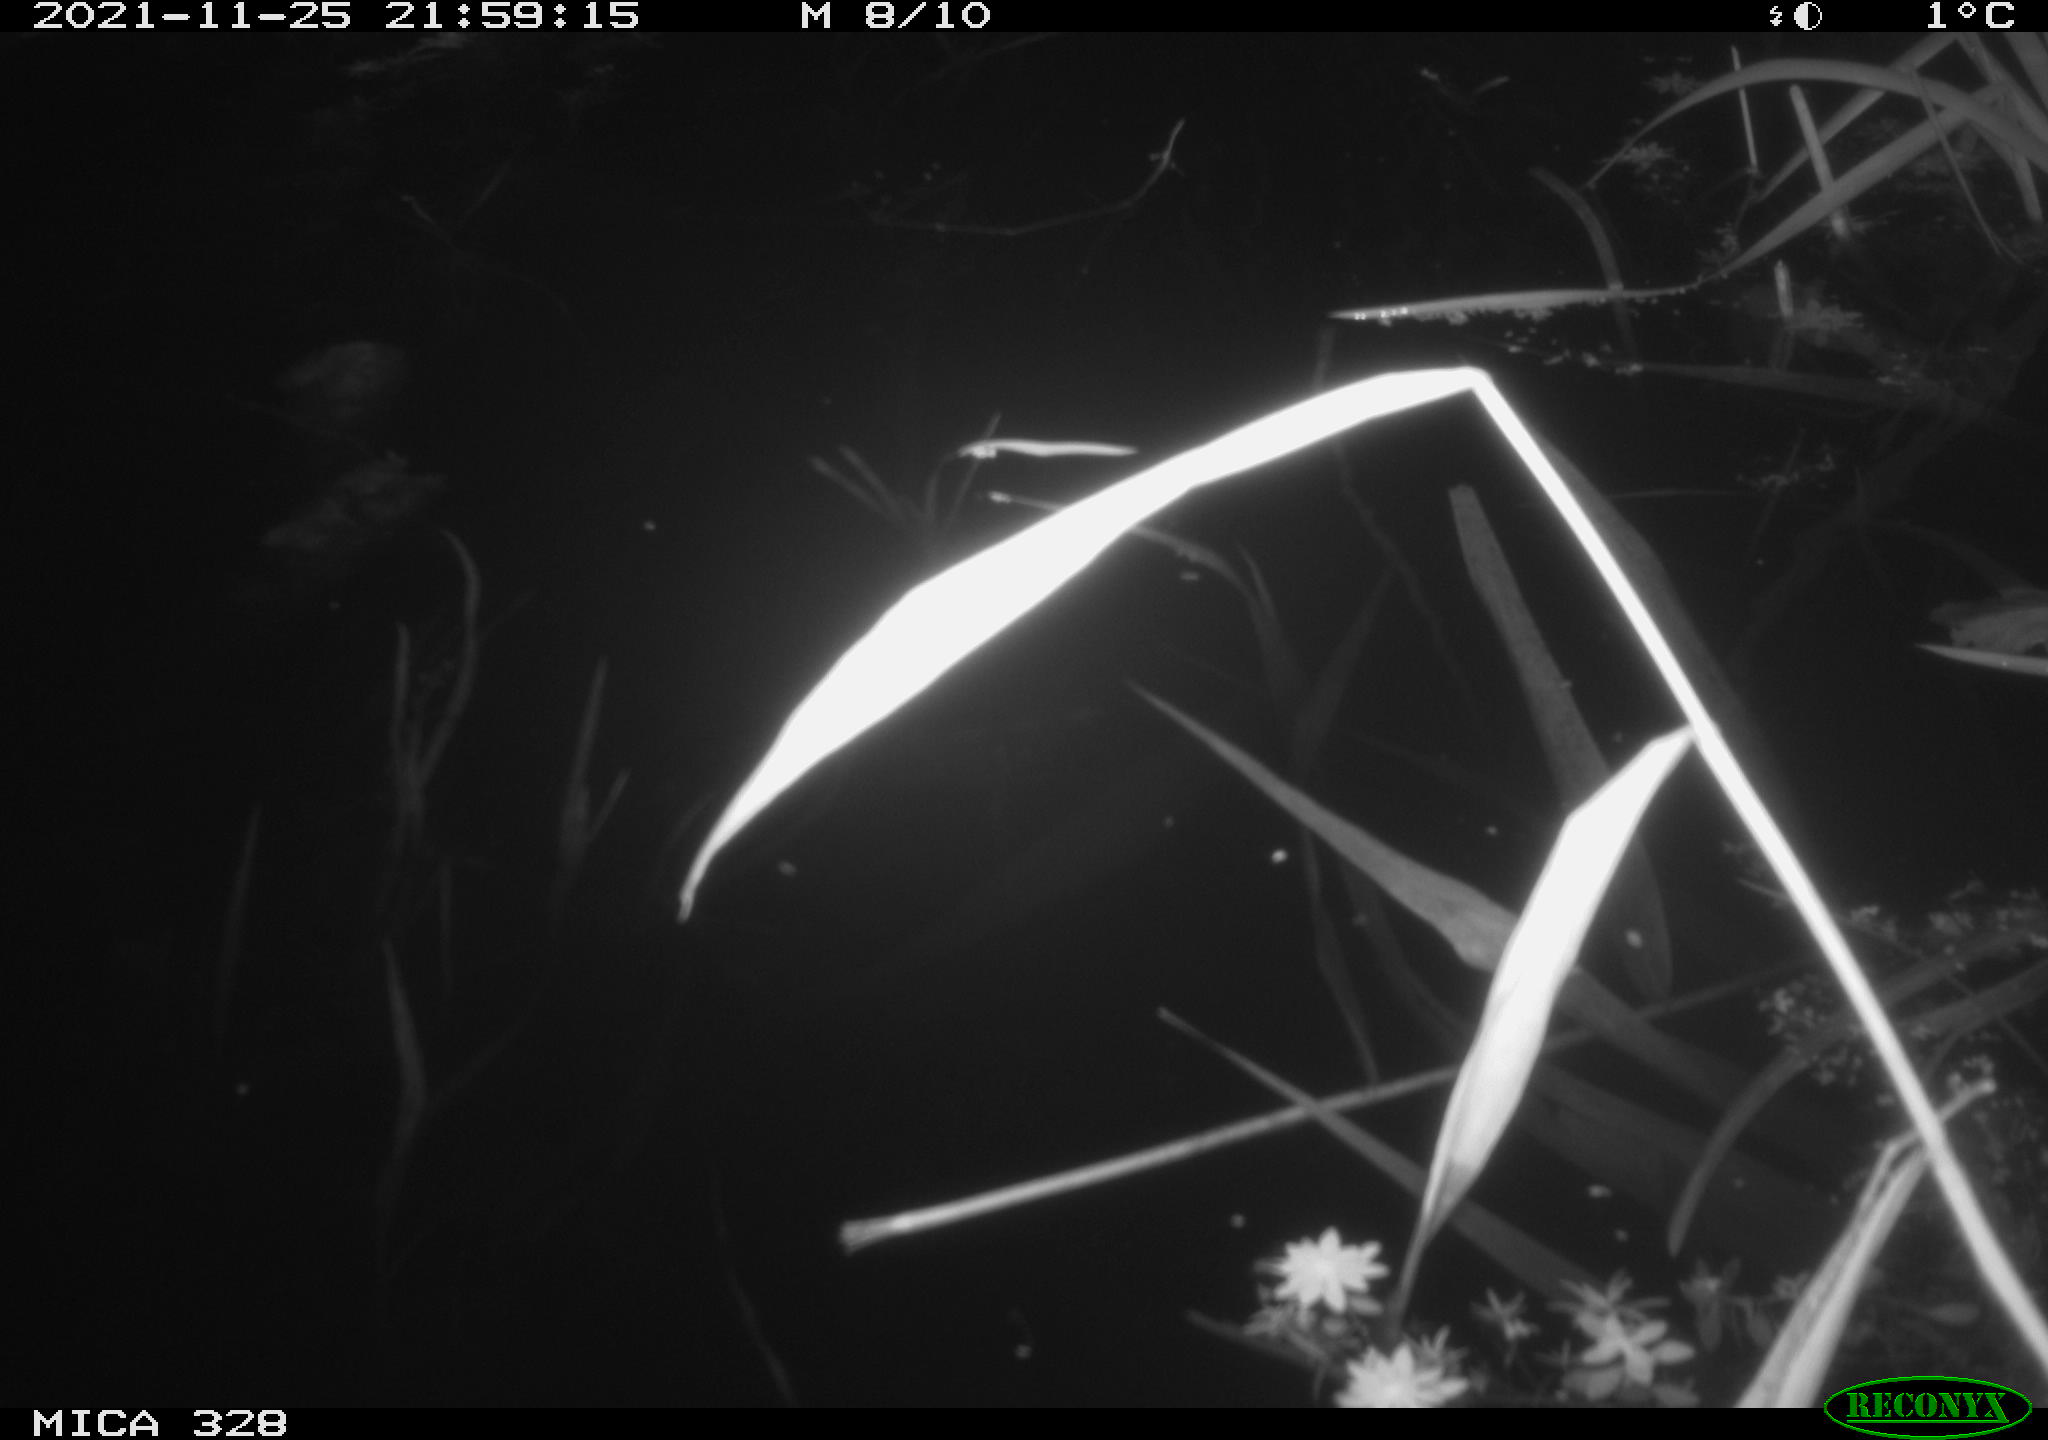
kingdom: Animalia
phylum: Chordata
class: Mammalia
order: Rodentia
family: Cricetidae
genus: Ondatra
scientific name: Ondatra zibethicus
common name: Muskrat
